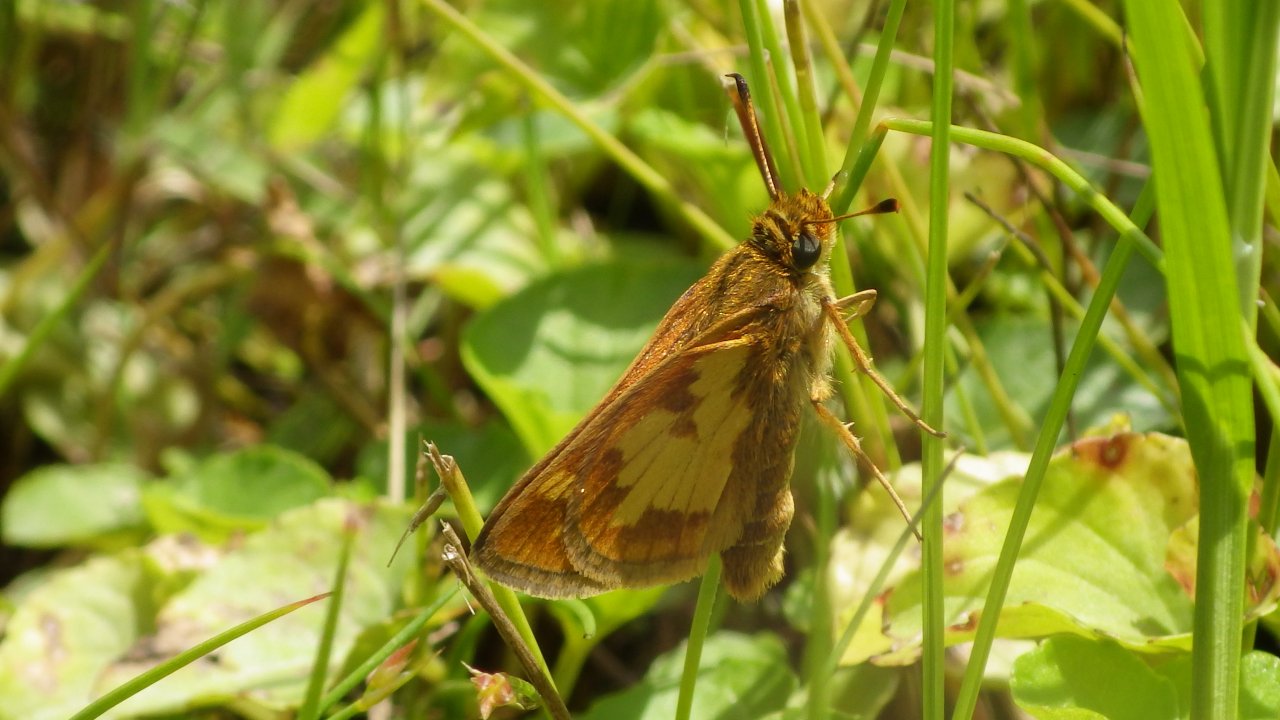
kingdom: Animalia
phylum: Arthropoda
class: Insecta
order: Lepidoptera
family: Hesperiidae
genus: Polites
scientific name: Polites coras
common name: Peck's Skipper
